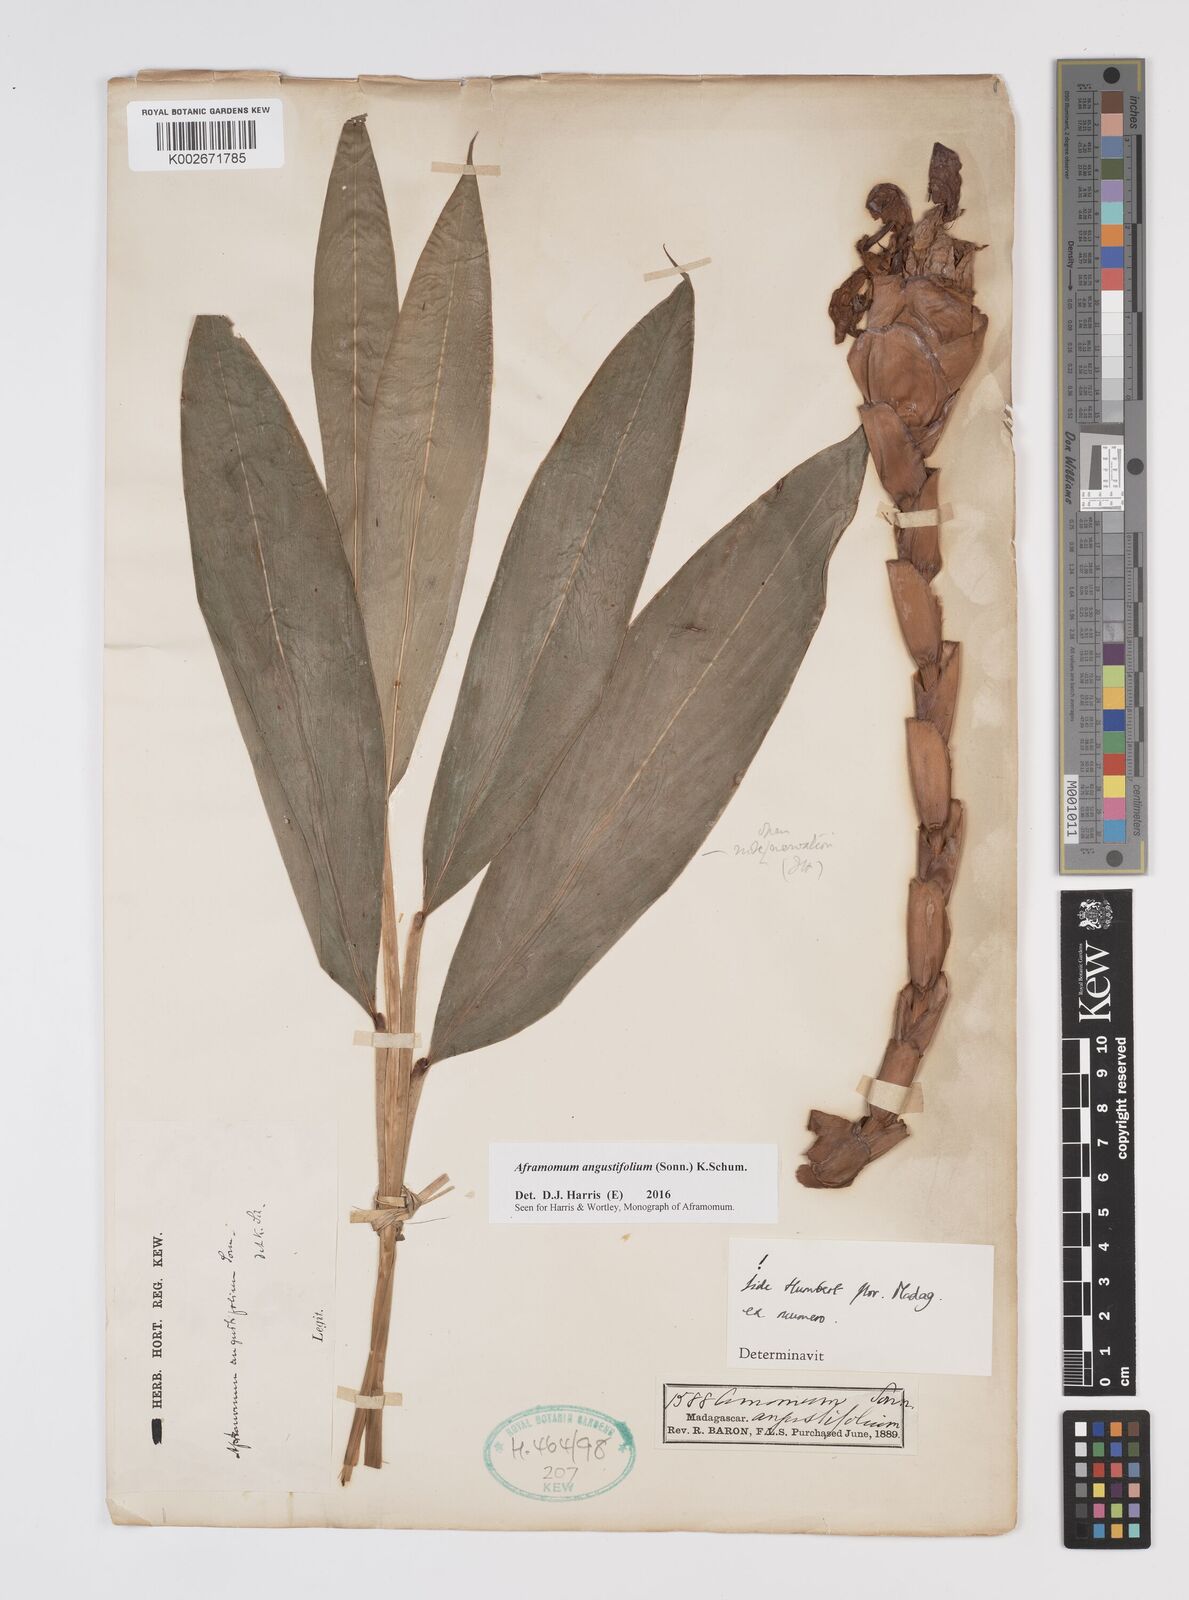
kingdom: Plantae
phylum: Tracheophyta
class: Liliopsida
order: Zingiberales
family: Zingiberaceae
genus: Aframomum
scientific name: Aframomum angustifolium
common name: Guinea grains
